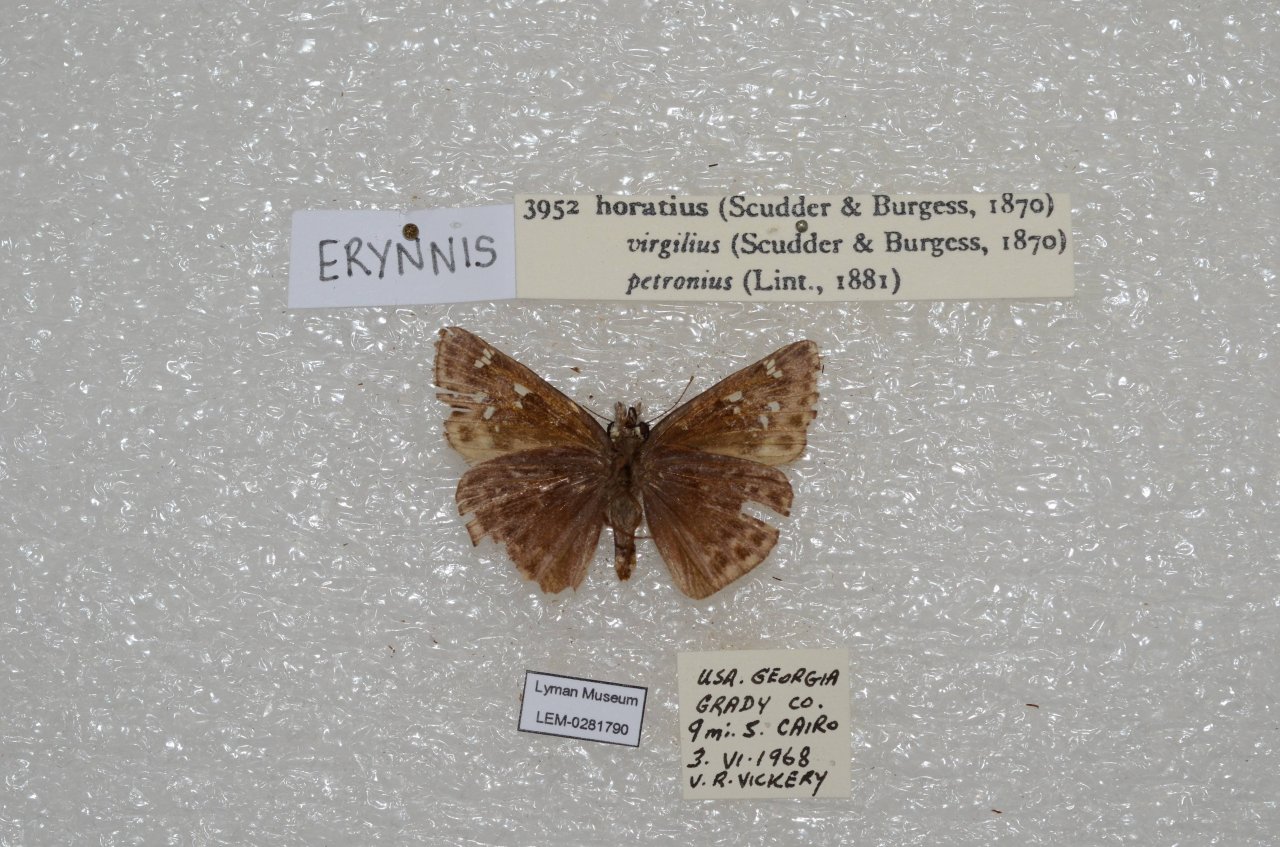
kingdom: Animalia
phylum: Arthropoda
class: Insecta
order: Lepidoptera
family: Hesperiidae
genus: Gesta
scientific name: Gesta
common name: Horace's Duskywing
